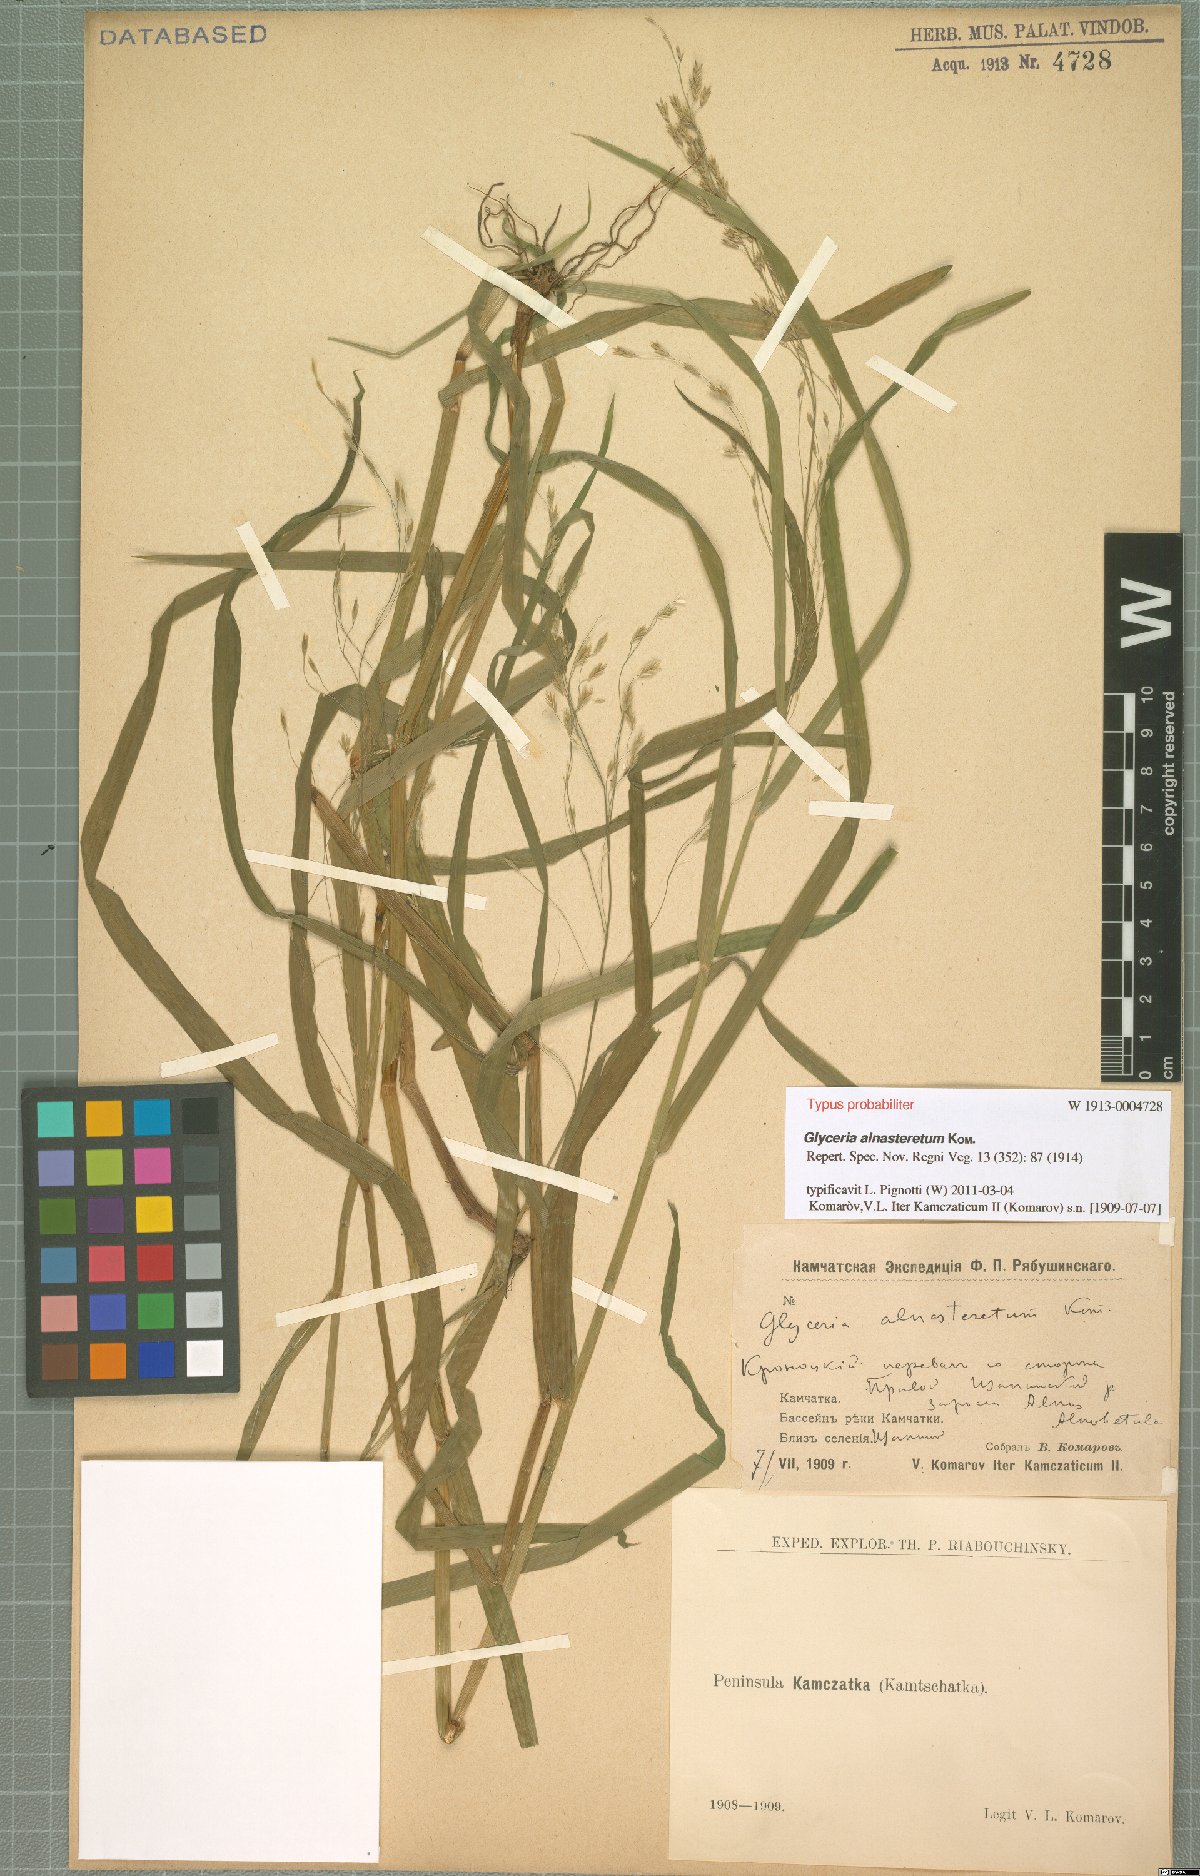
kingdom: Plantae
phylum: Tracheophyta
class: Liliopsida
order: Poales
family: Poaceae
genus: Glyceria
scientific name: Glyceria alnasteretum
